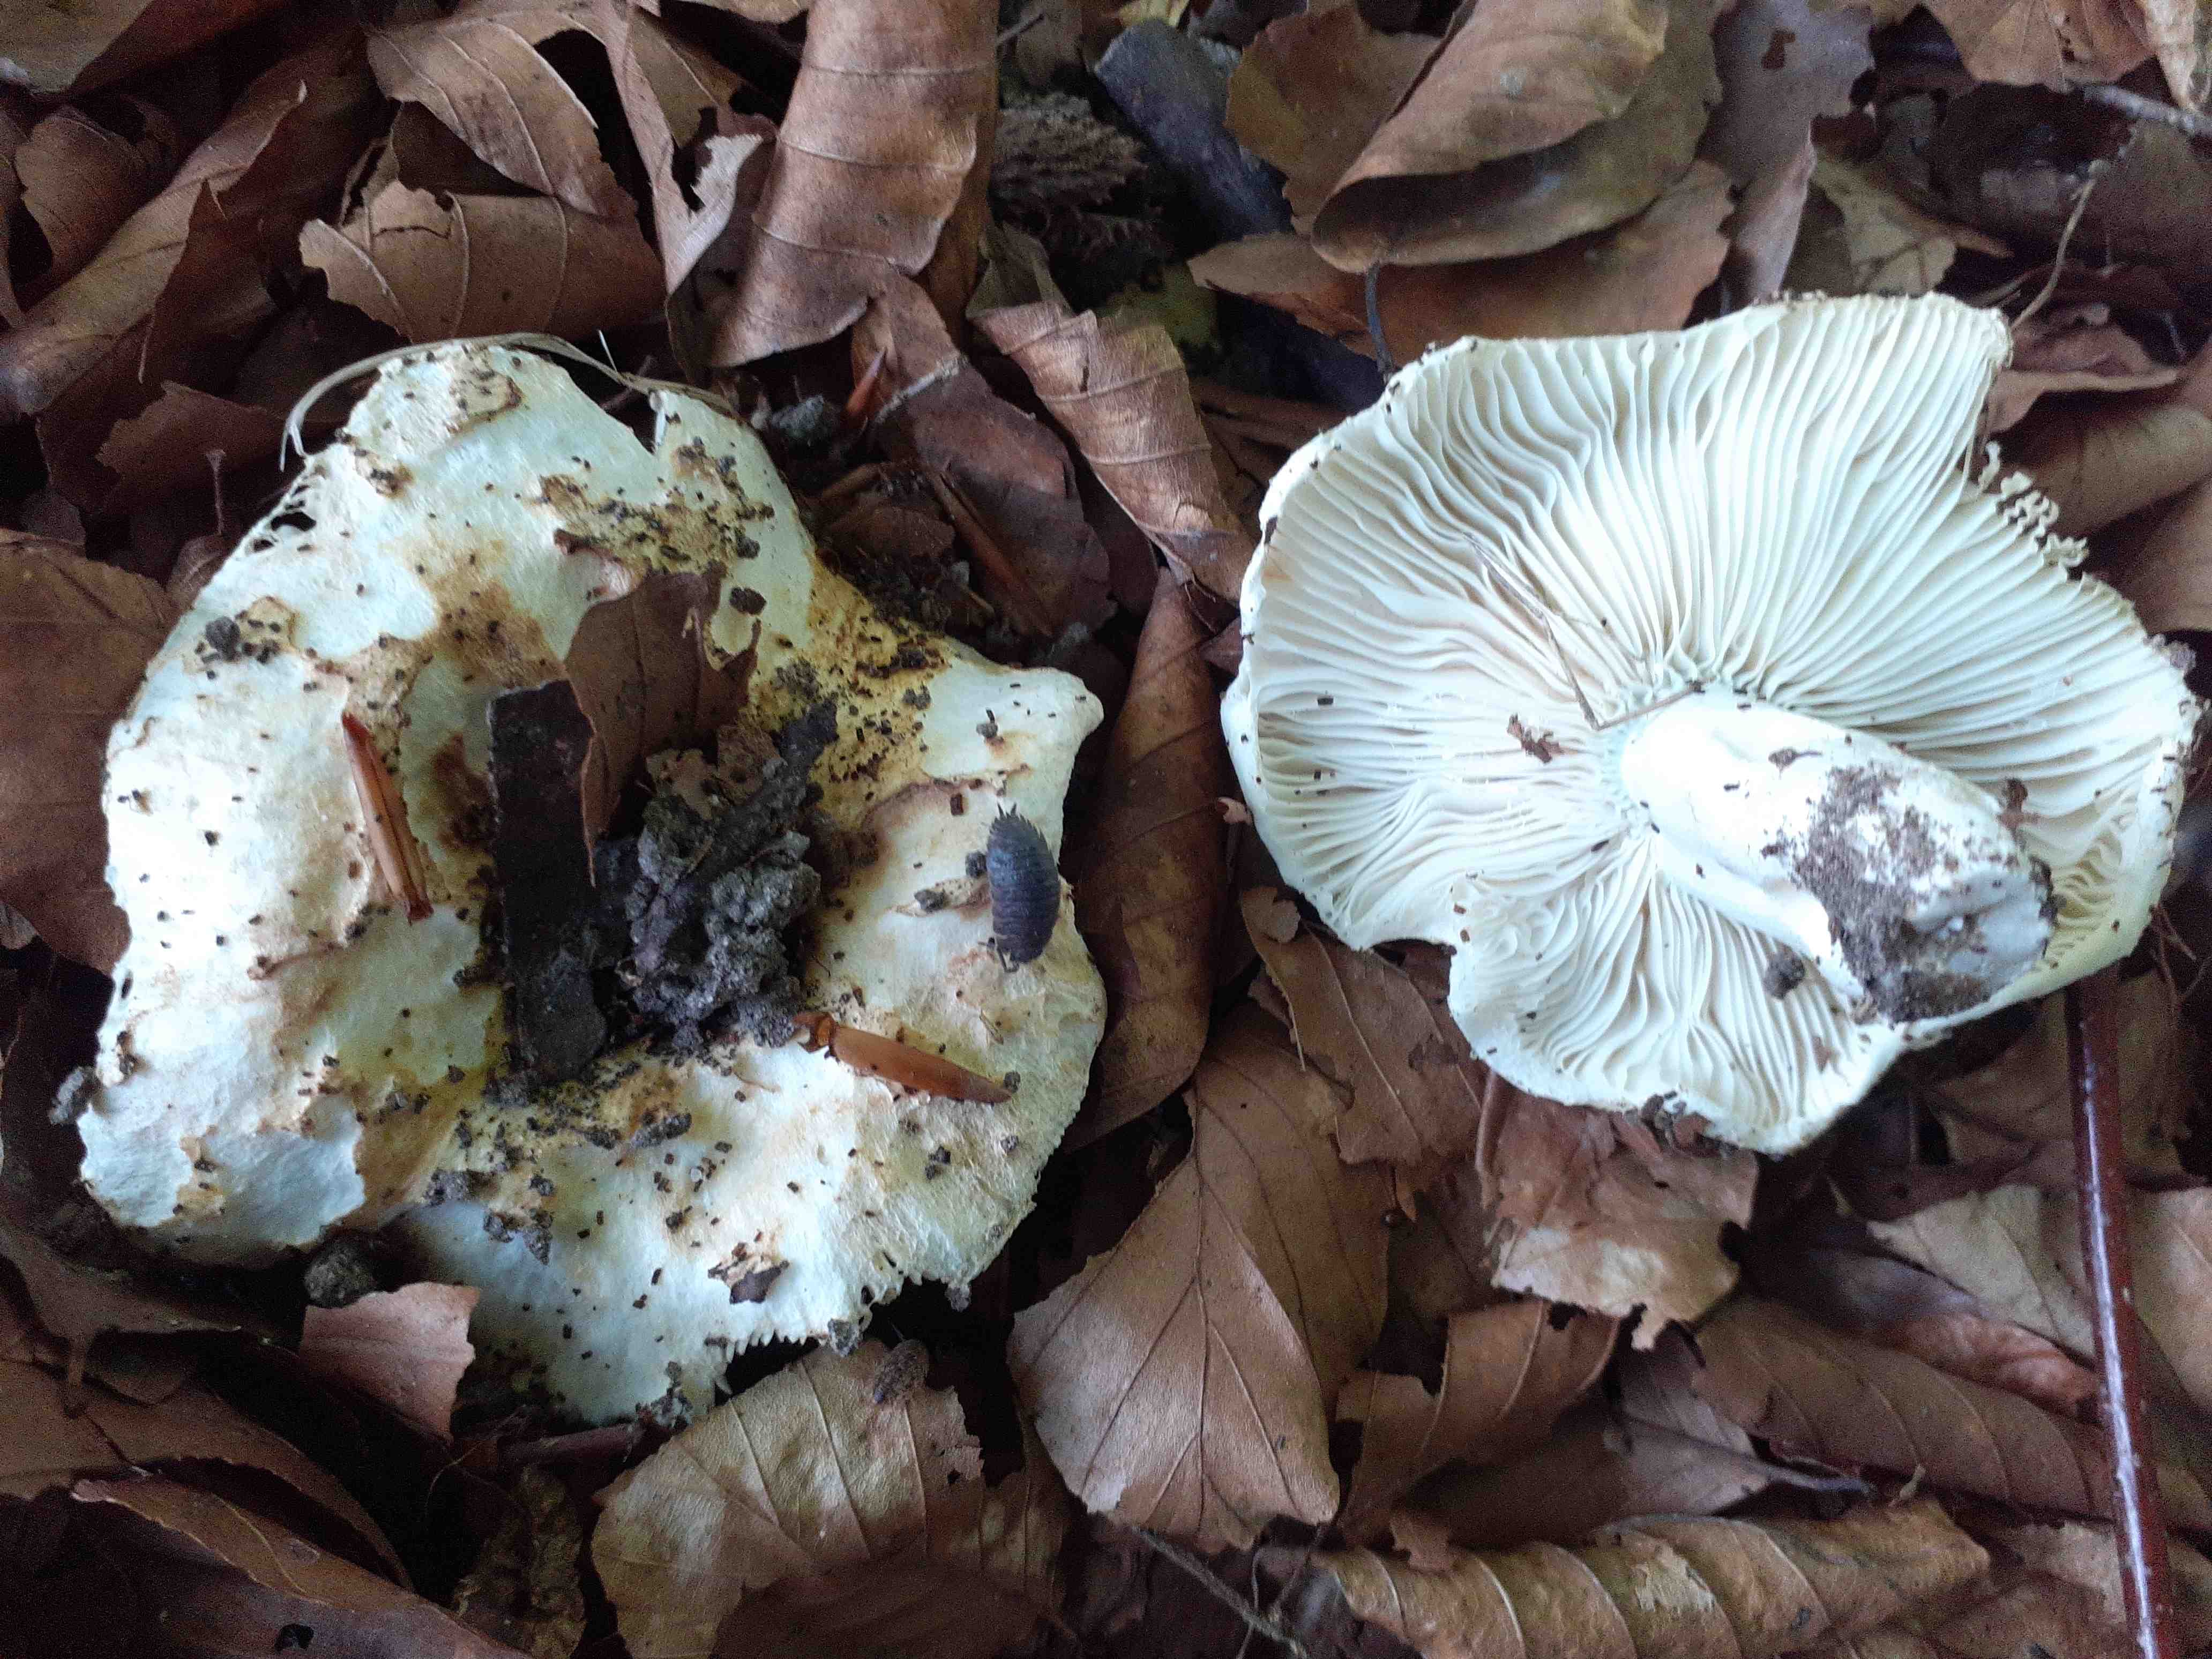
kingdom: Fungi
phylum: Basidiomycota
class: Agaricomycetes
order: Russulales
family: Russulaceae
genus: Russula
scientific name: Russula chloroides
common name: grønhalset tragt-skørhat
